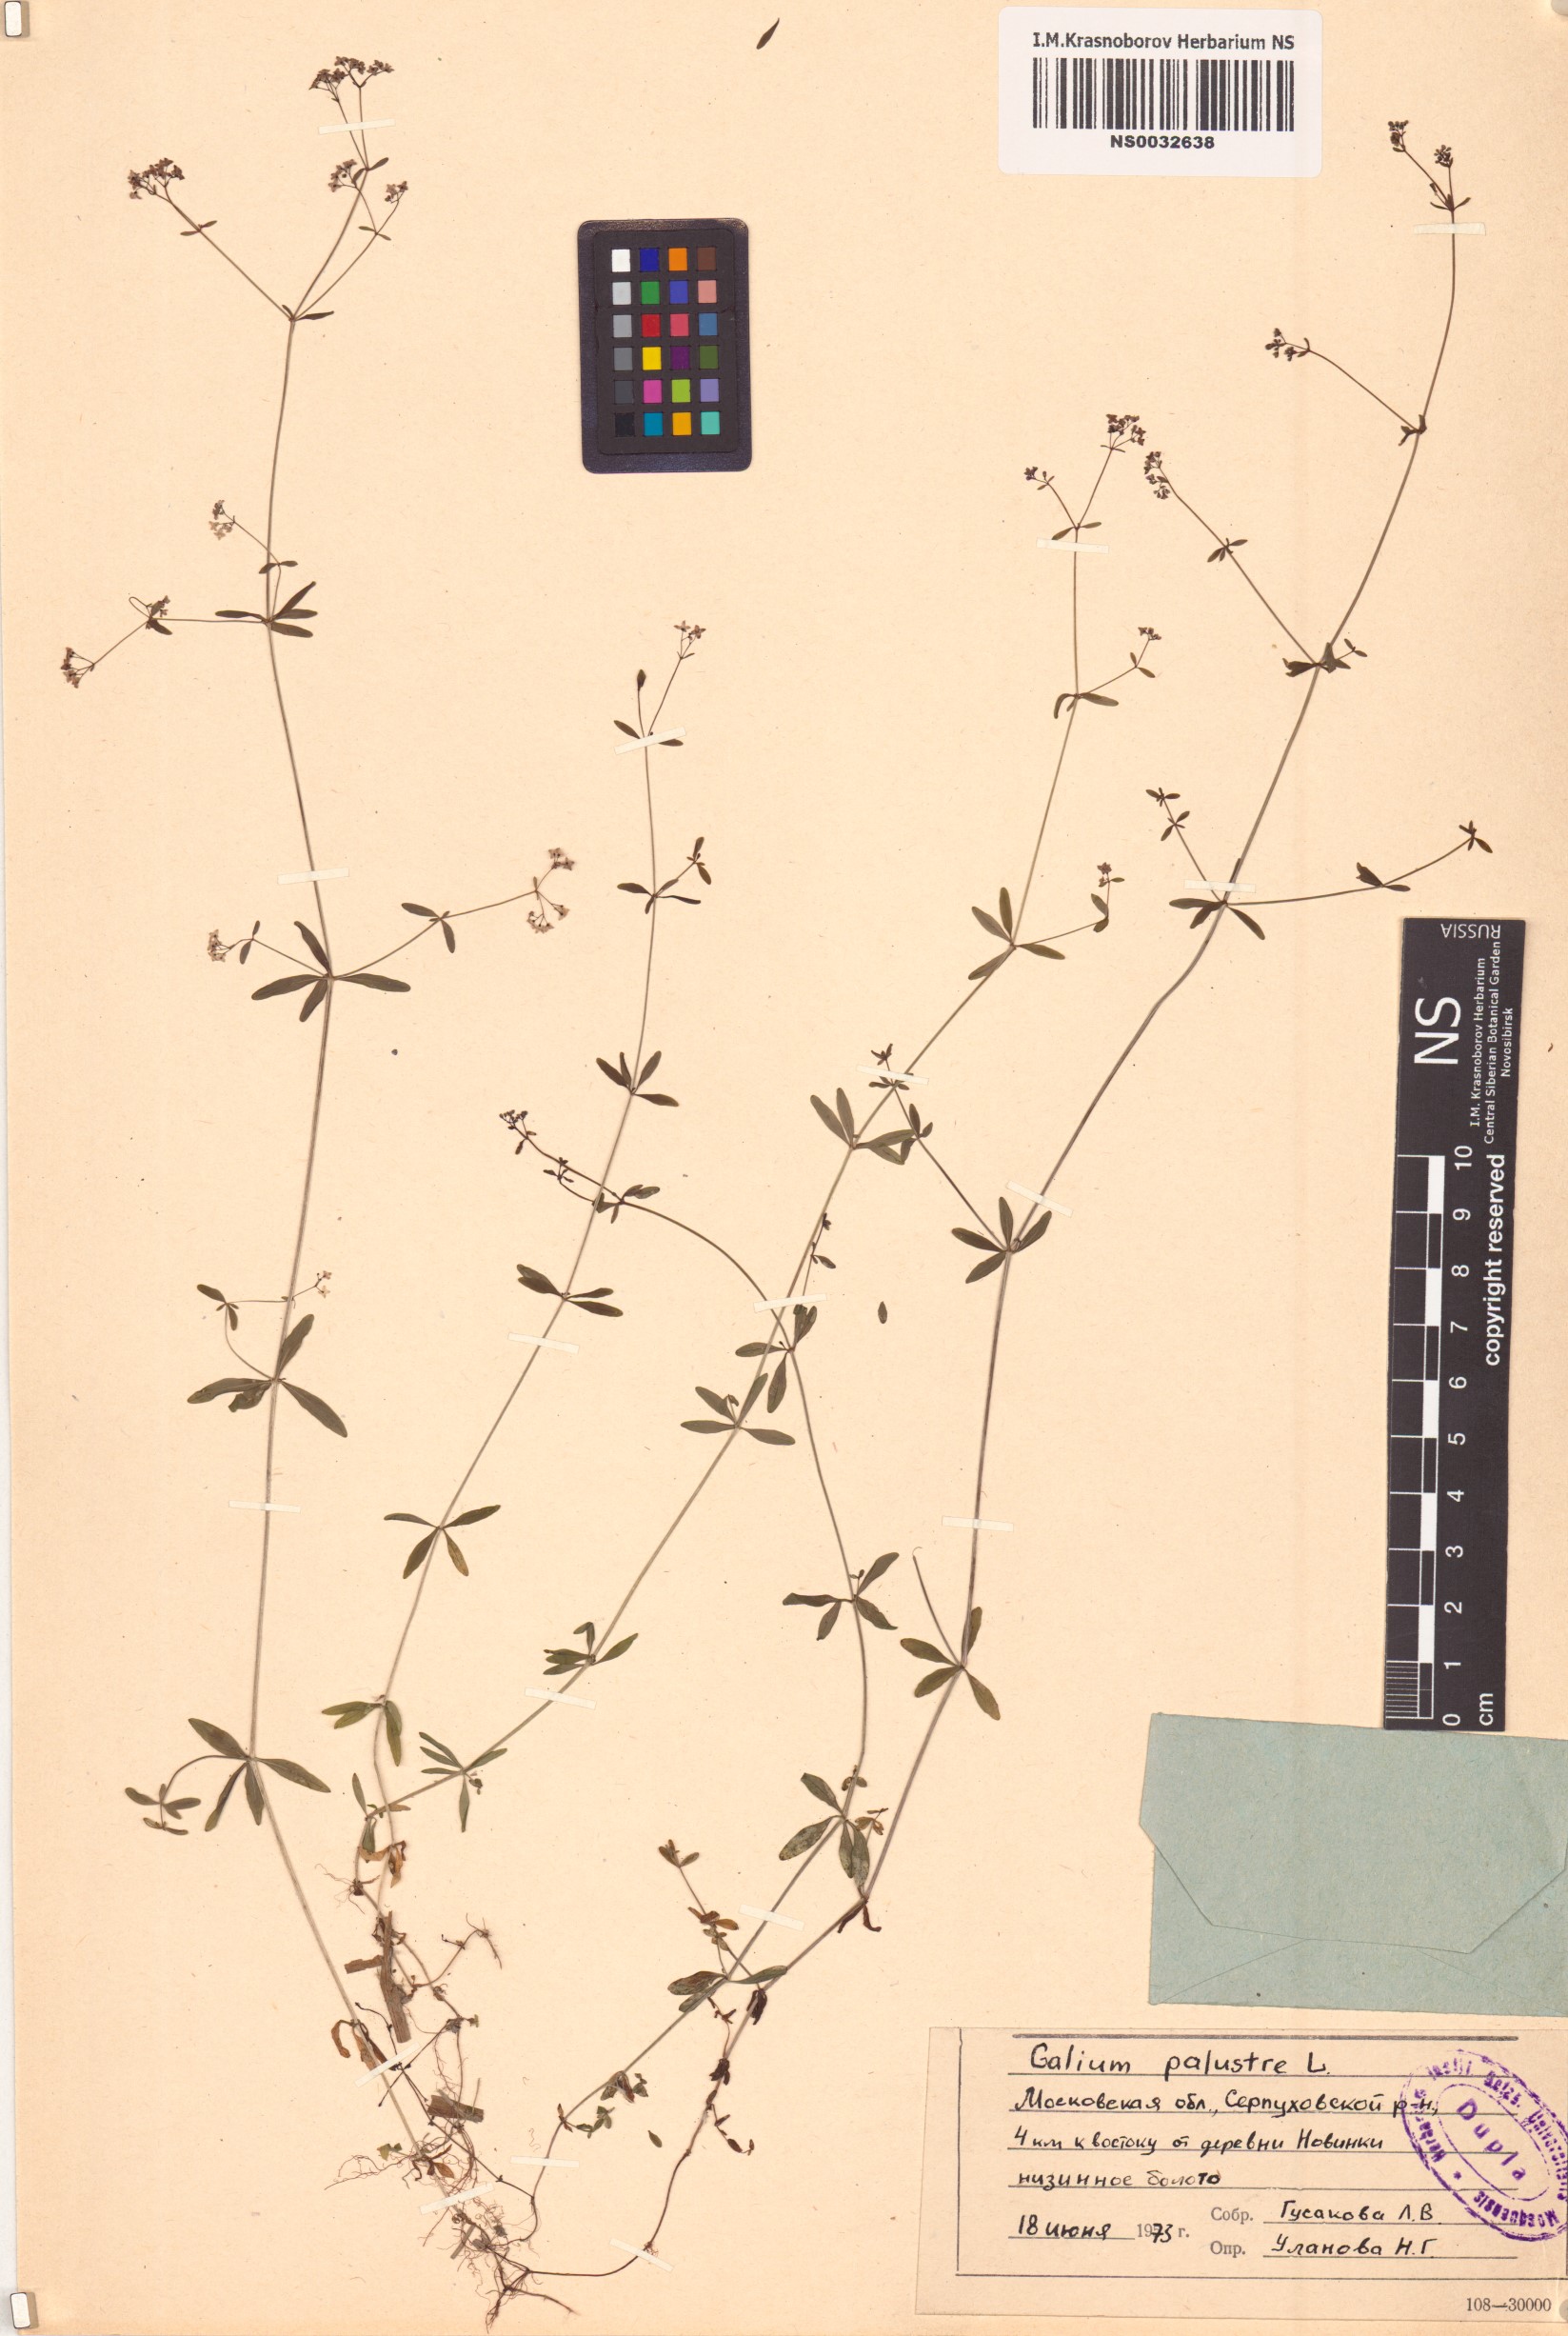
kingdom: Plantae
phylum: Tracheophyta
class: Magnoliopsida
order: Gentianales
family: Rubiaceae
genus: Galium
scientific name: Galium palustre
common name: Common marsh-bedstraw
